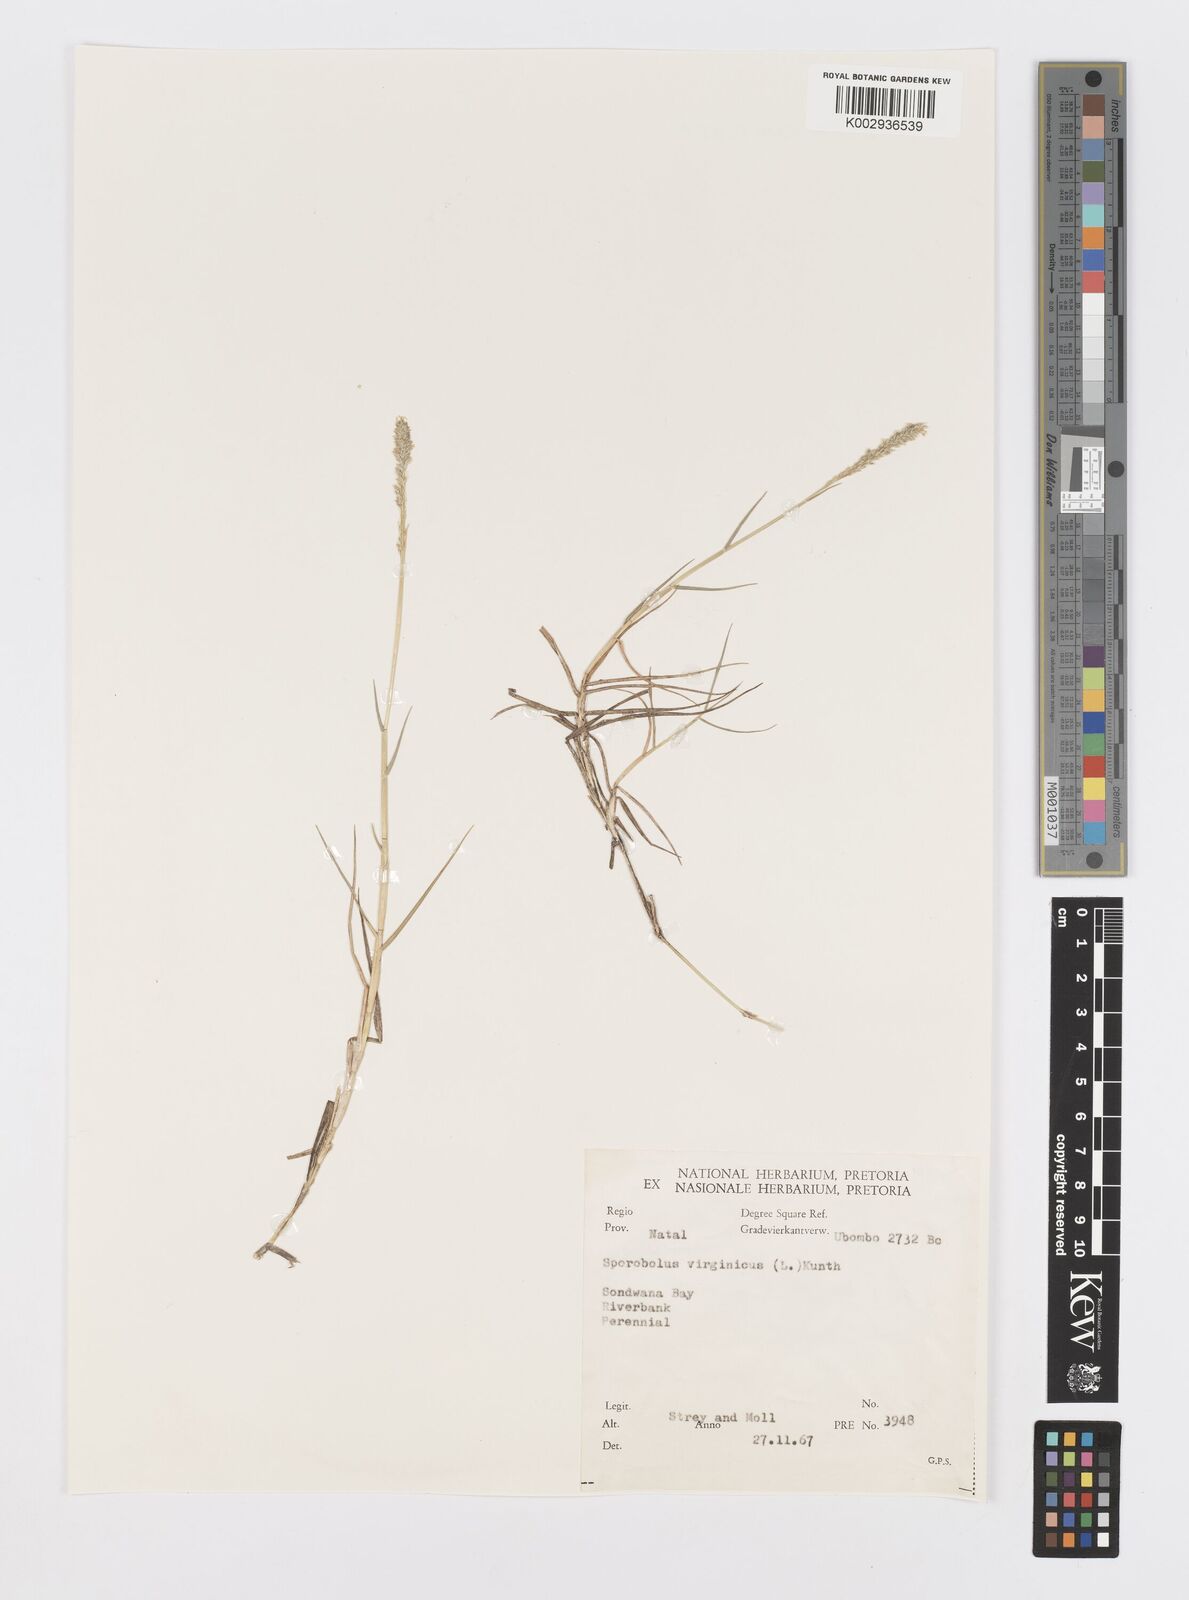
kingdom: Plantae
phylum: Tracheophyta
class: Liliopsida
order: Poales
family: Poaceae
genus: Sporobolus
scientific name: Sporobolus virginicus
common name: Beach dropseed
